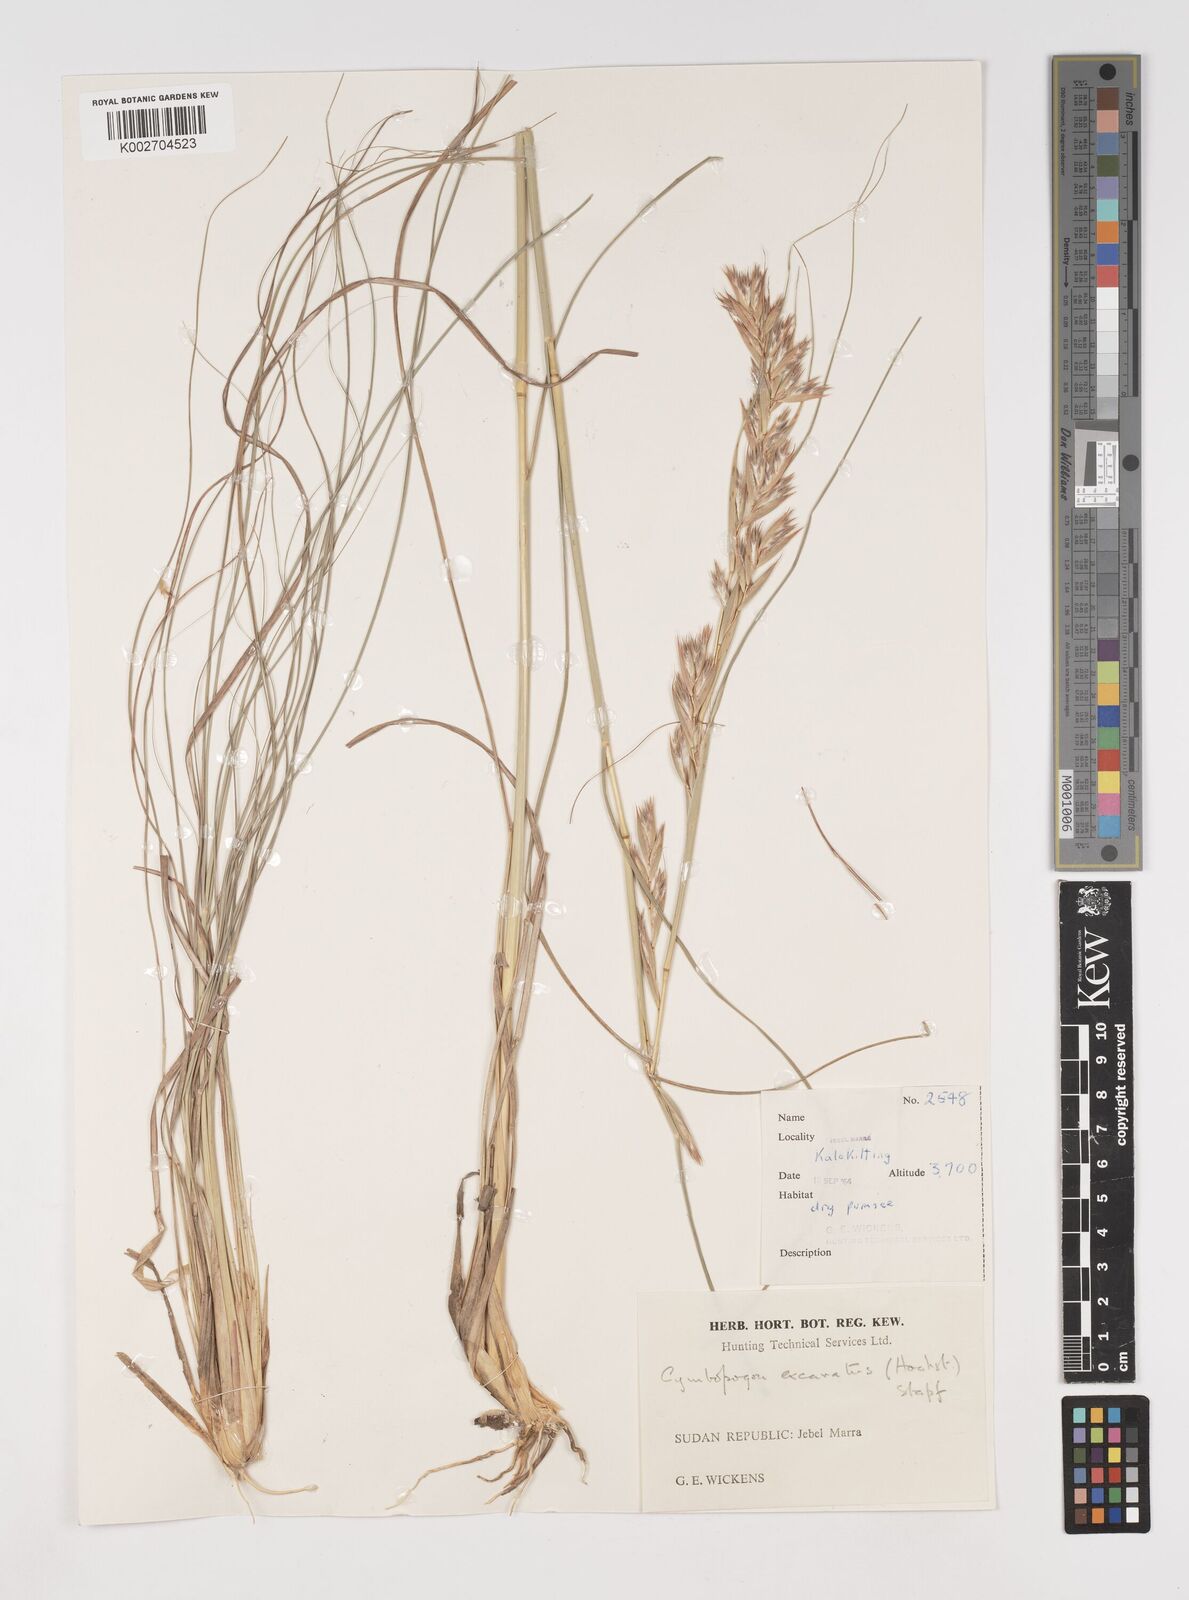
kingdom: Plantae
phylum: Tracheophyta
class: Liliopsida
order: Poales
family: Poaceae
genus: Cymbopogon
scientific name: Cymbopogon schoenanthus
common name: Geranium grass
